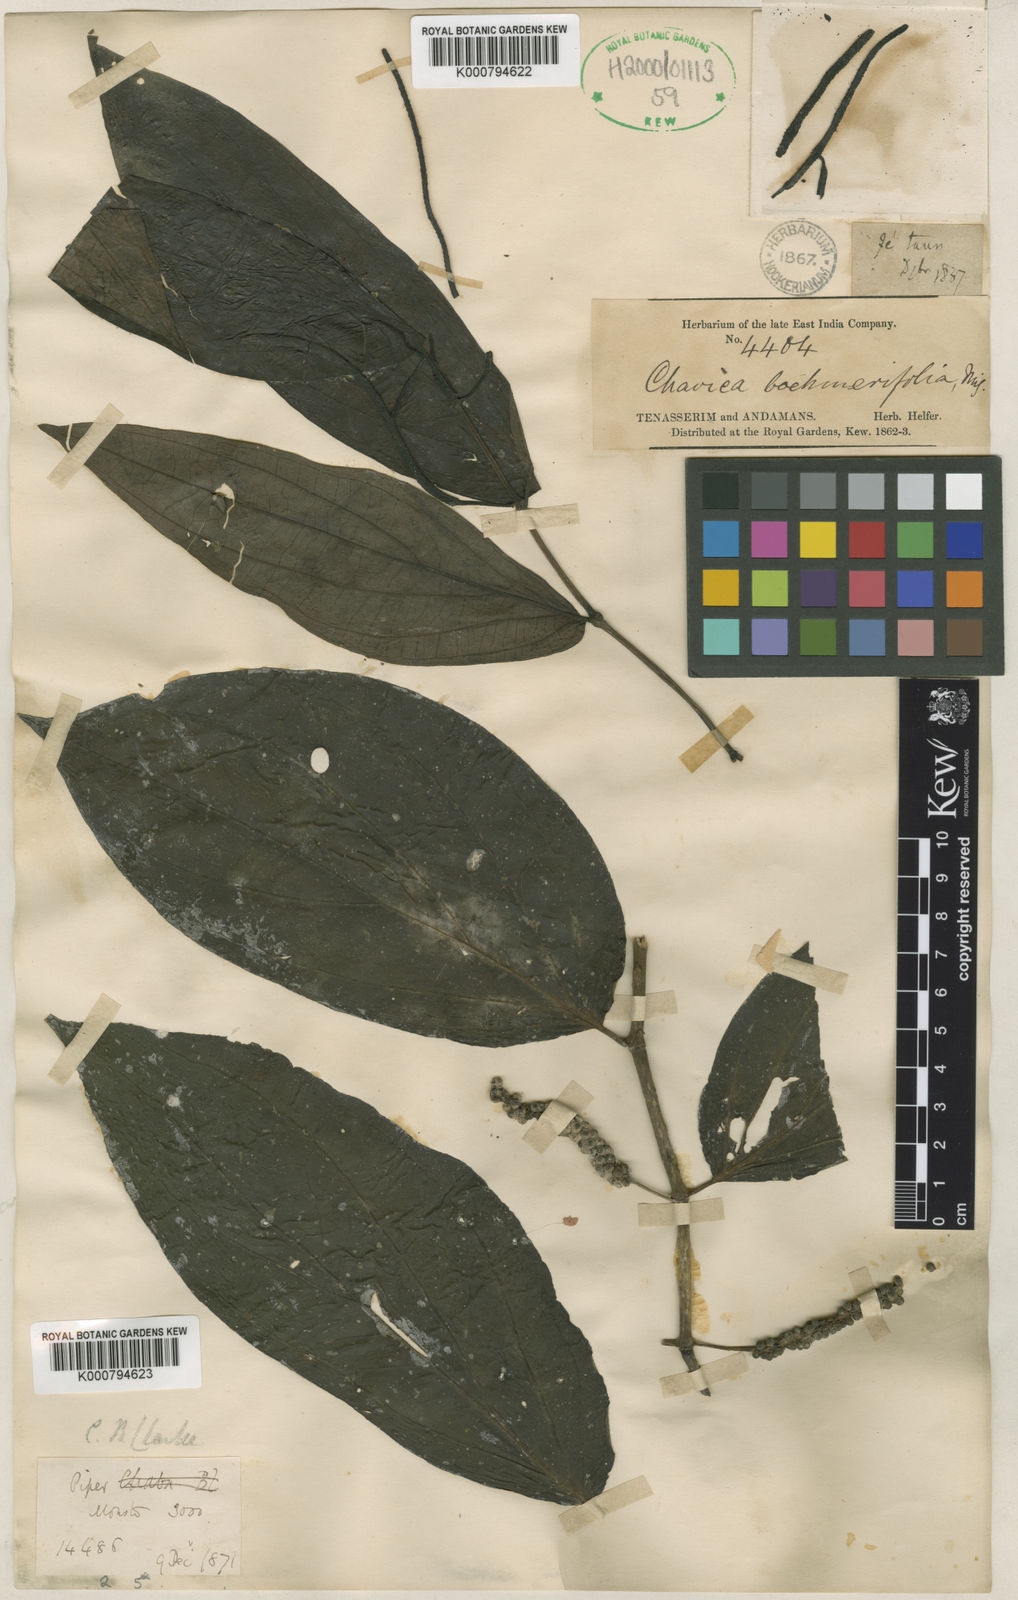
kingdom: Plantae
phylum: Tracheophyta
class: Magnoliopsida
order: Piperales
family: Piperaceae
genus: Piper
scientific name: Piper boehmeriifolium
